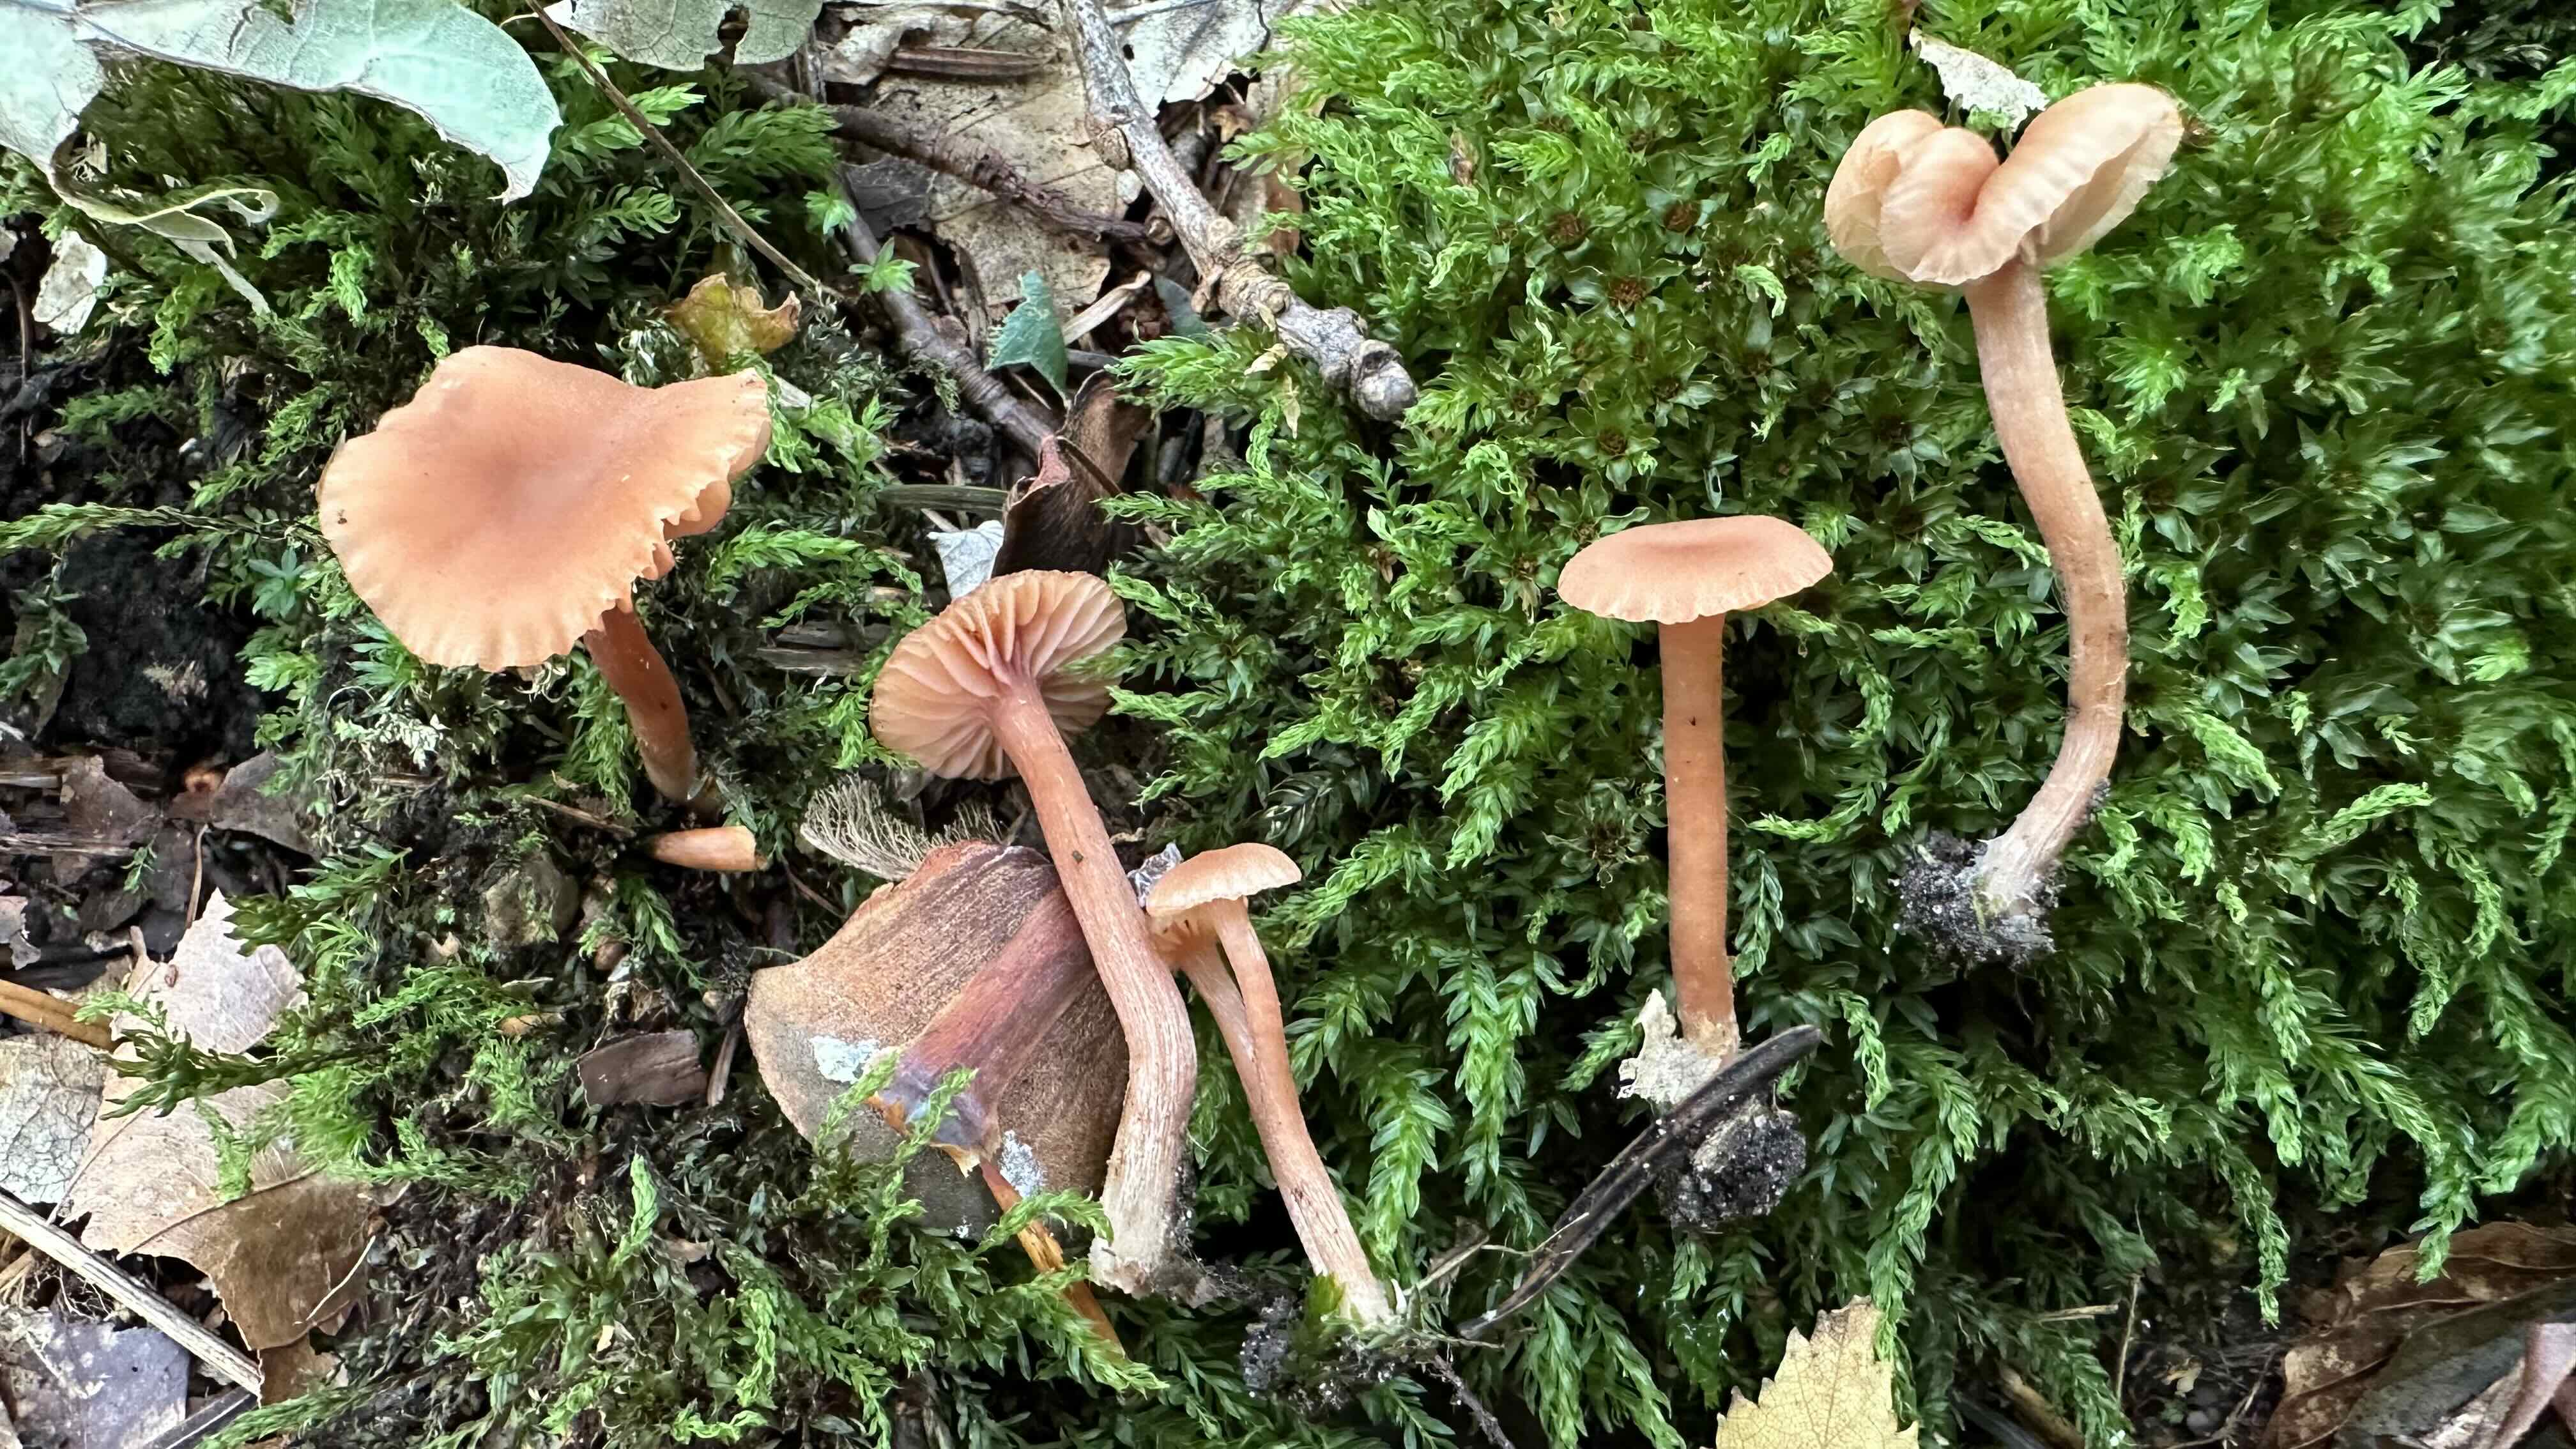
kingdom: Fungi
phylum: Basidiomycota
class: Agaricomycetes
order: Agaricales
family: Hydnangiaceae
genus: Laccaria
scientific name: Laccaria laccata
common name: rød ametysthat
